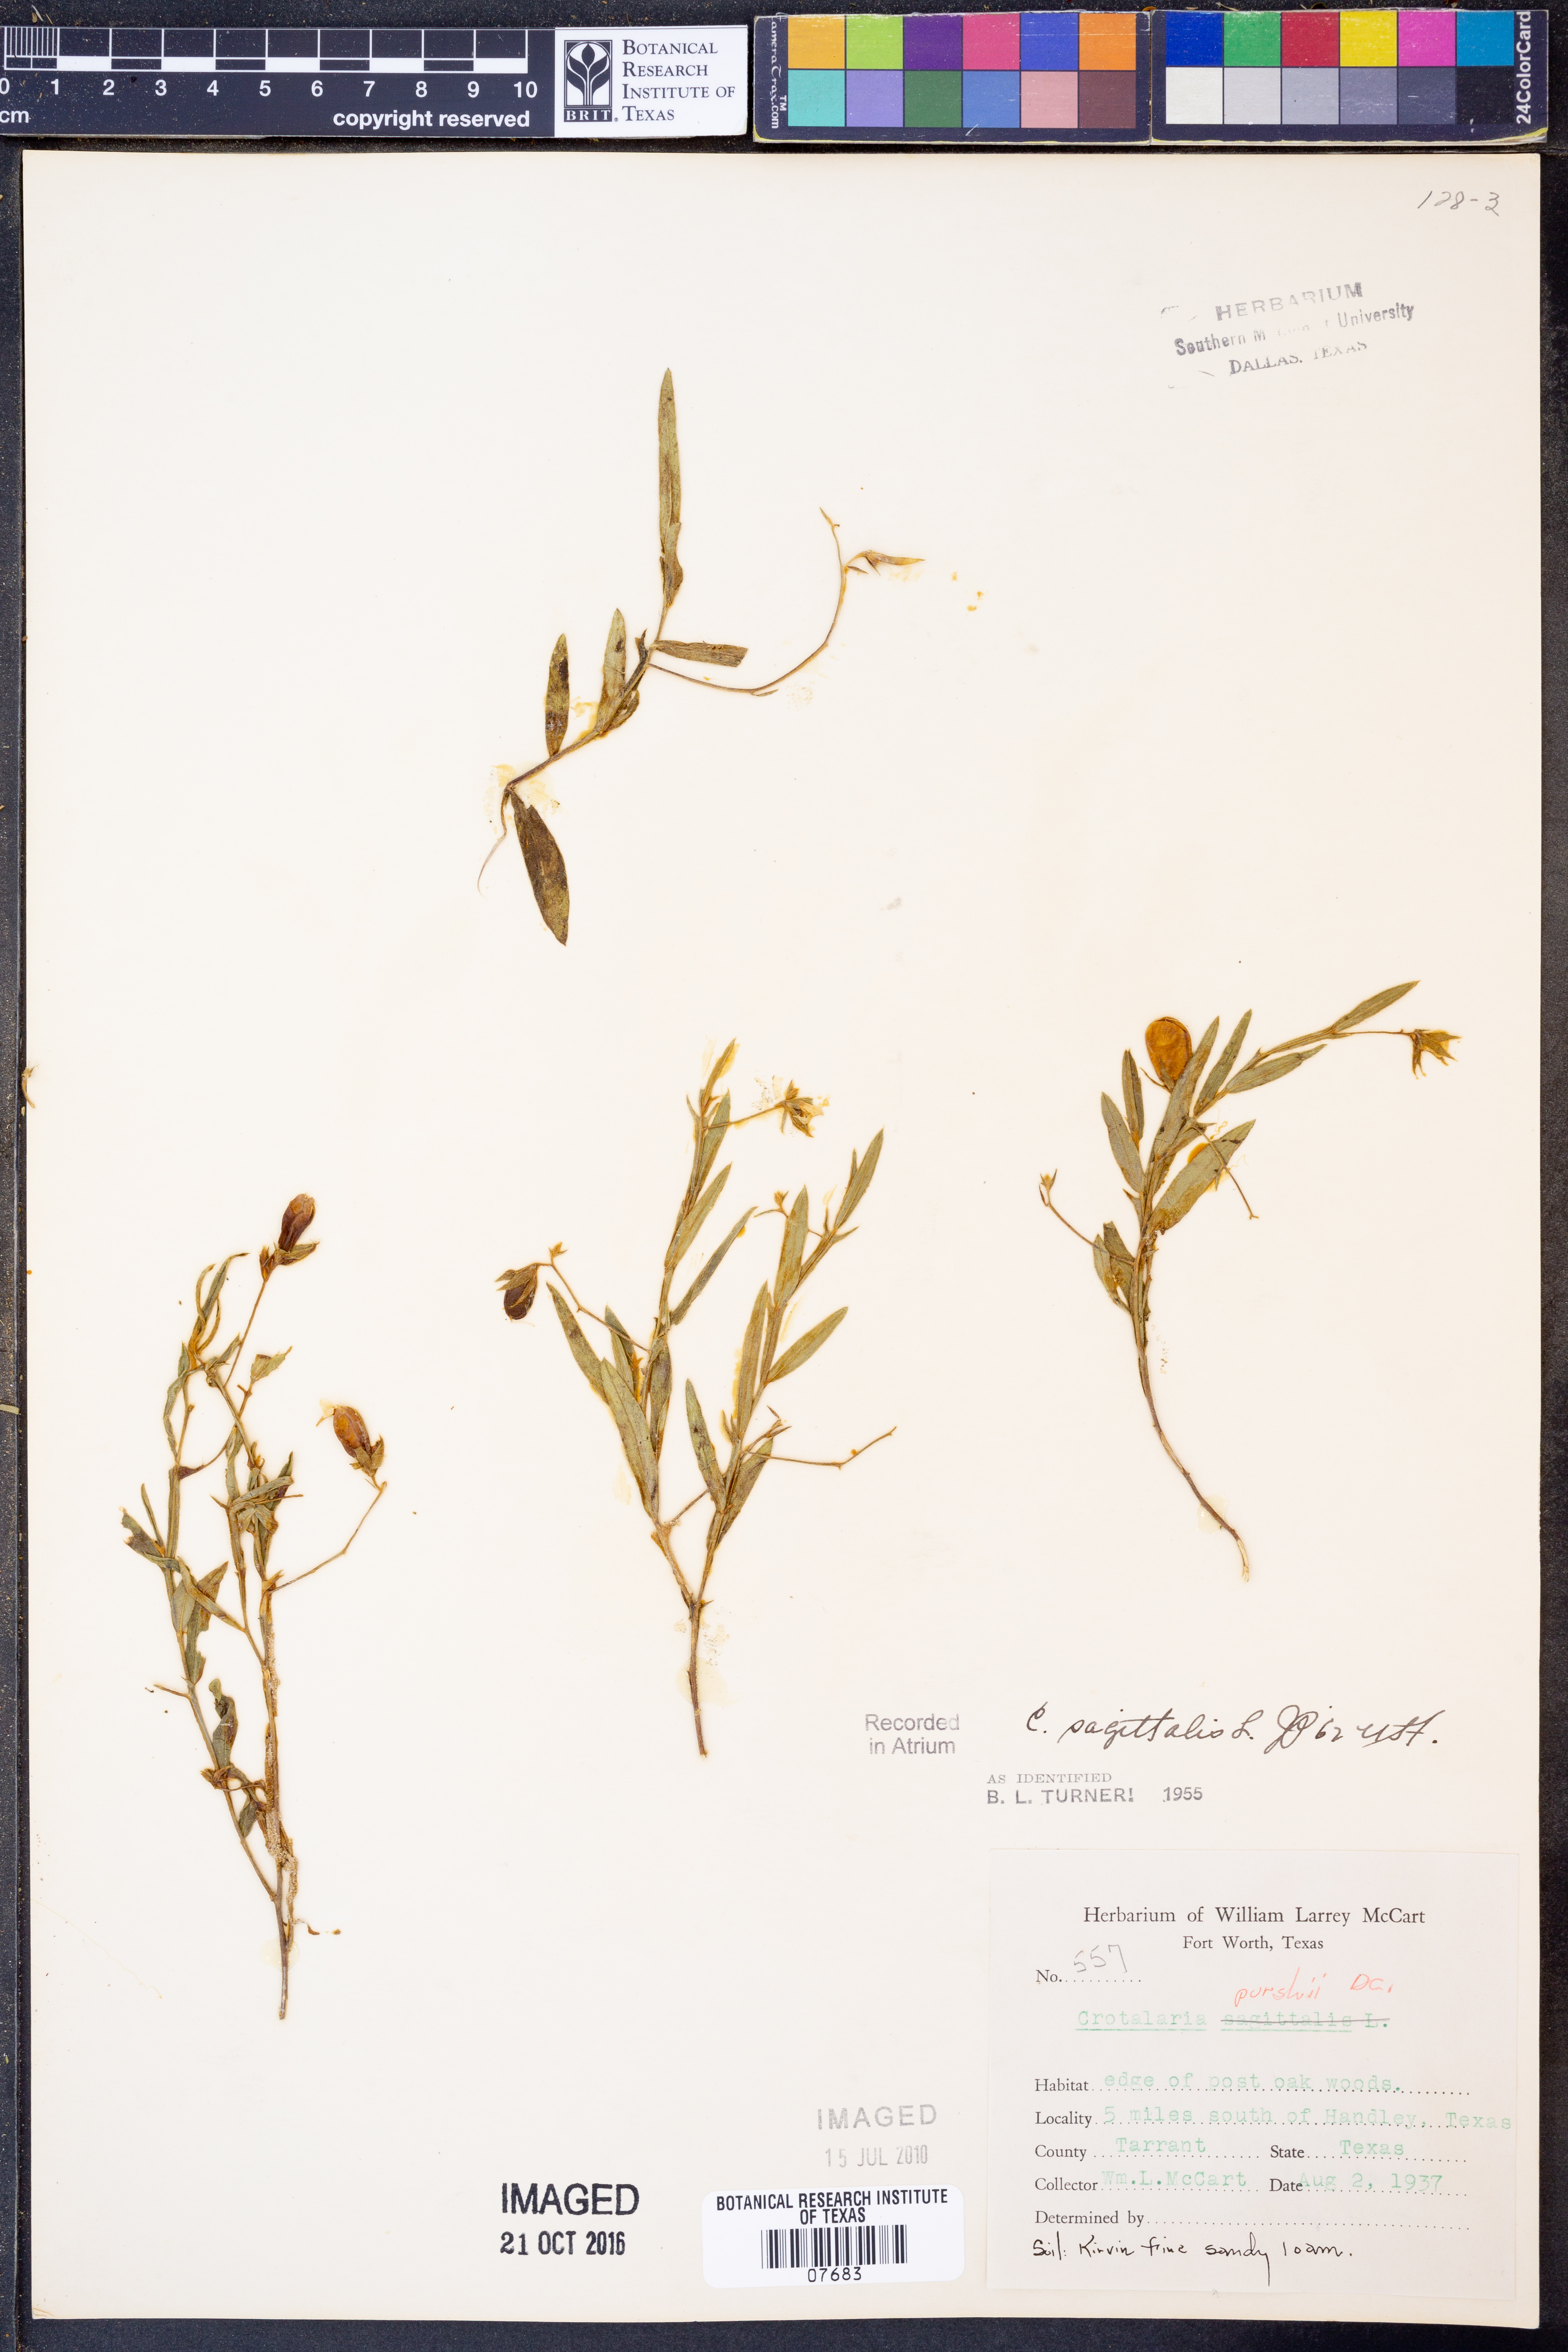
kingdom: Plantae
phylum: Tracheophyta
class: Magnoliopsida
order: Fabales
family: Fabaceae
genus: Crotalaria
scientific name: Crotalaria sagittalis
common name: Arrowhead rattlebox
